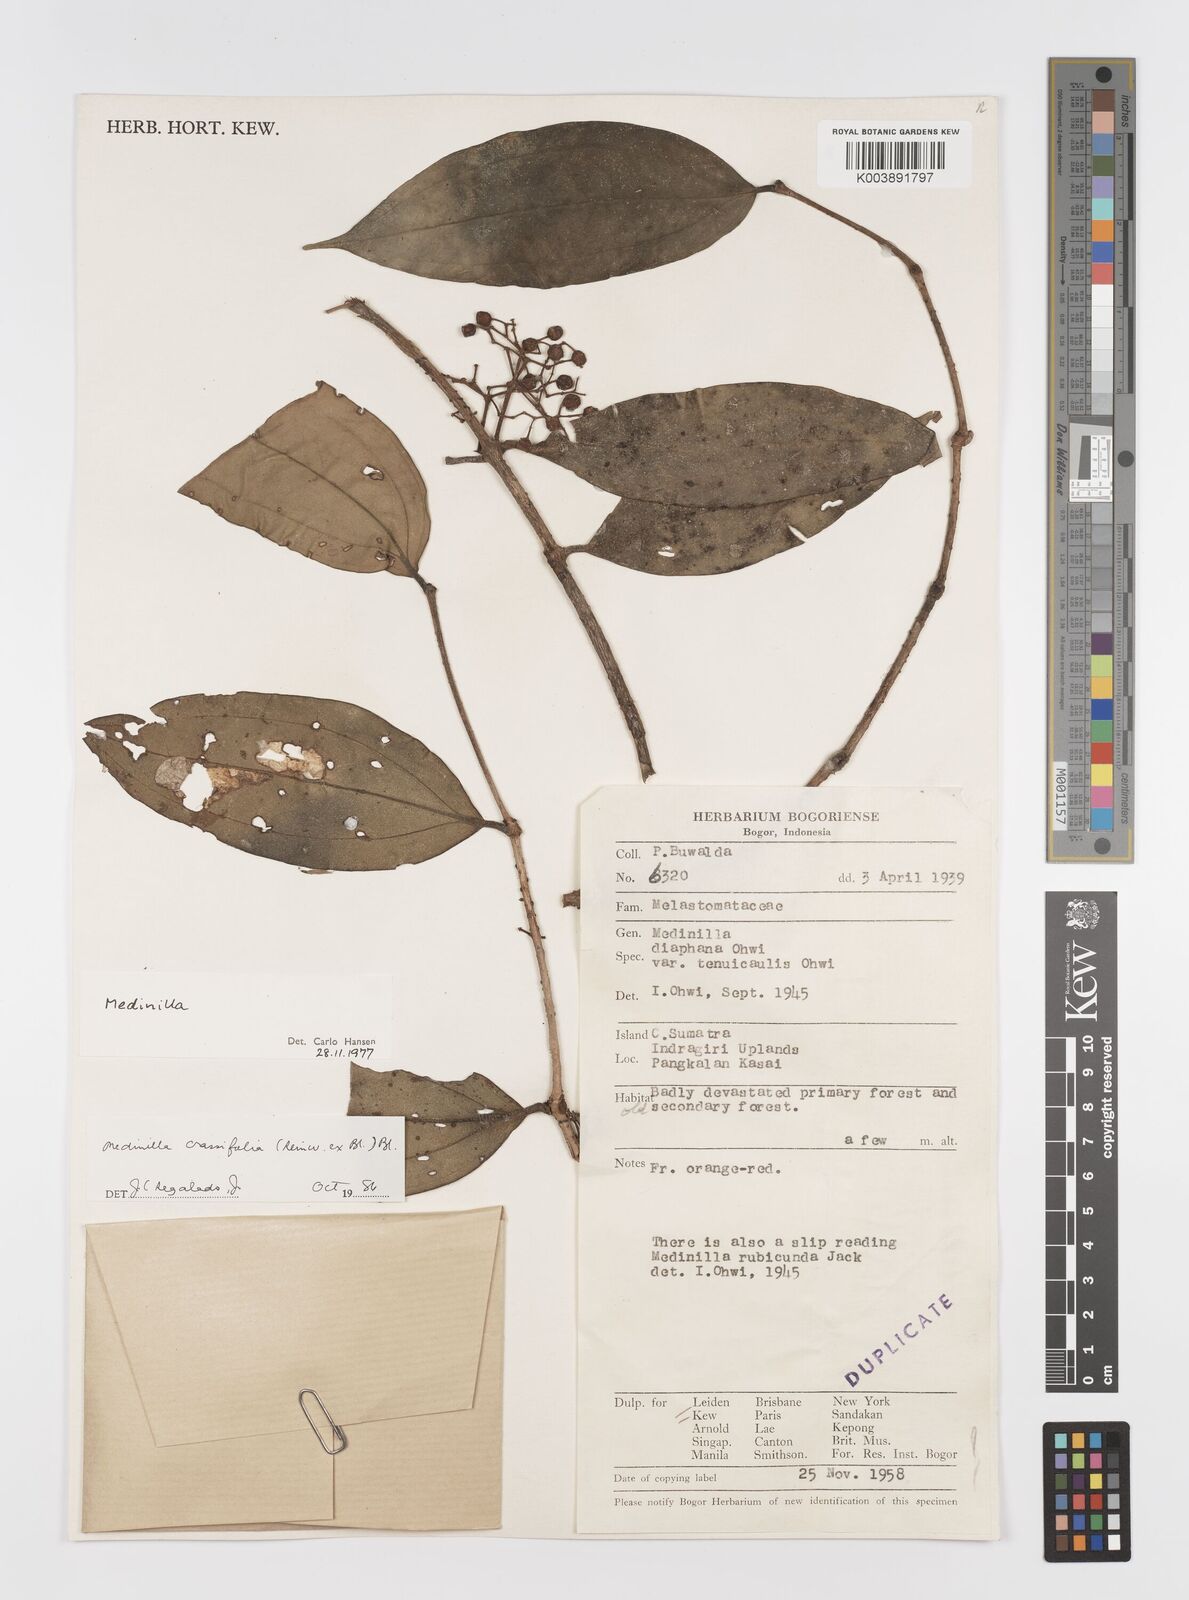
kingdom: Plantae
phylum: Tracheophyta
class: Magnoliopsida
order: Myrtales
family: Melastomataceae
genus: Medinilla
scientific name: Medinilla crassifolia
